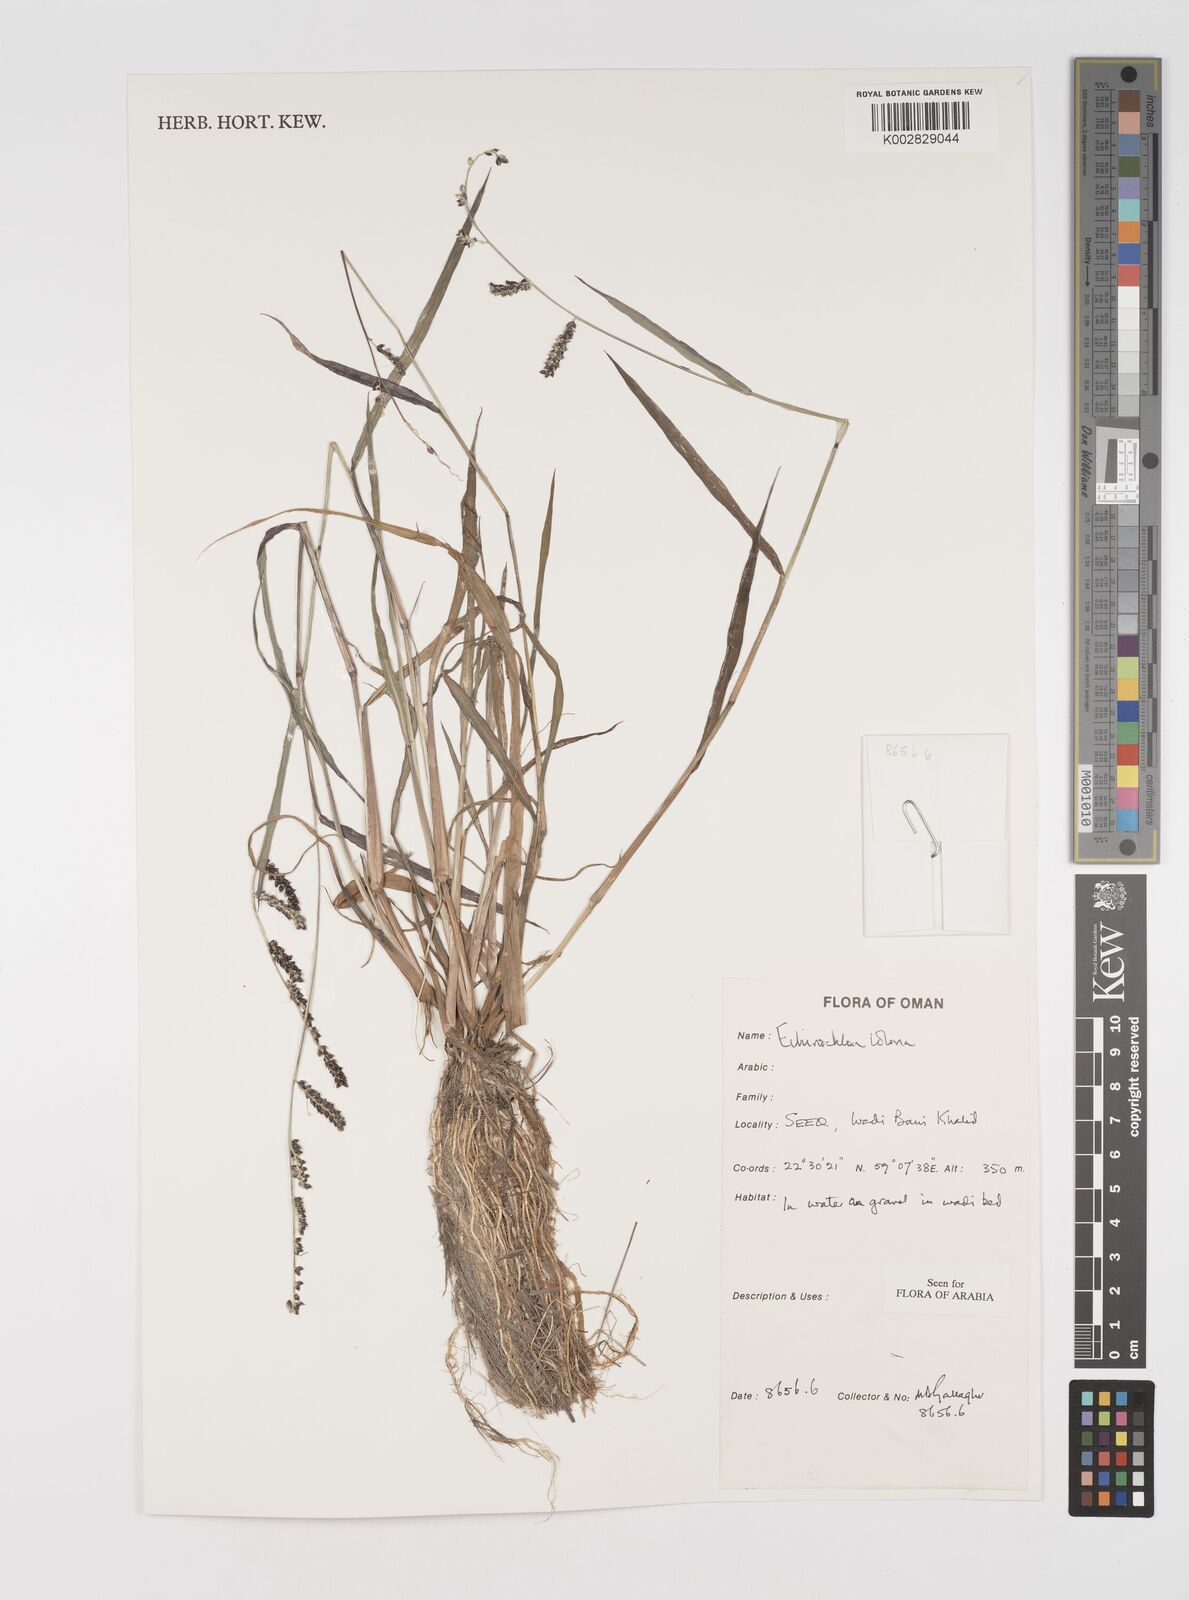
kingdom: Plantae
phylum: Tracheophyta
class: Liliopsida
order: Poales
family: Poaceae
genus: Echinochloa
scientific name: Echinochloa colonum
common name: Jungle rice
